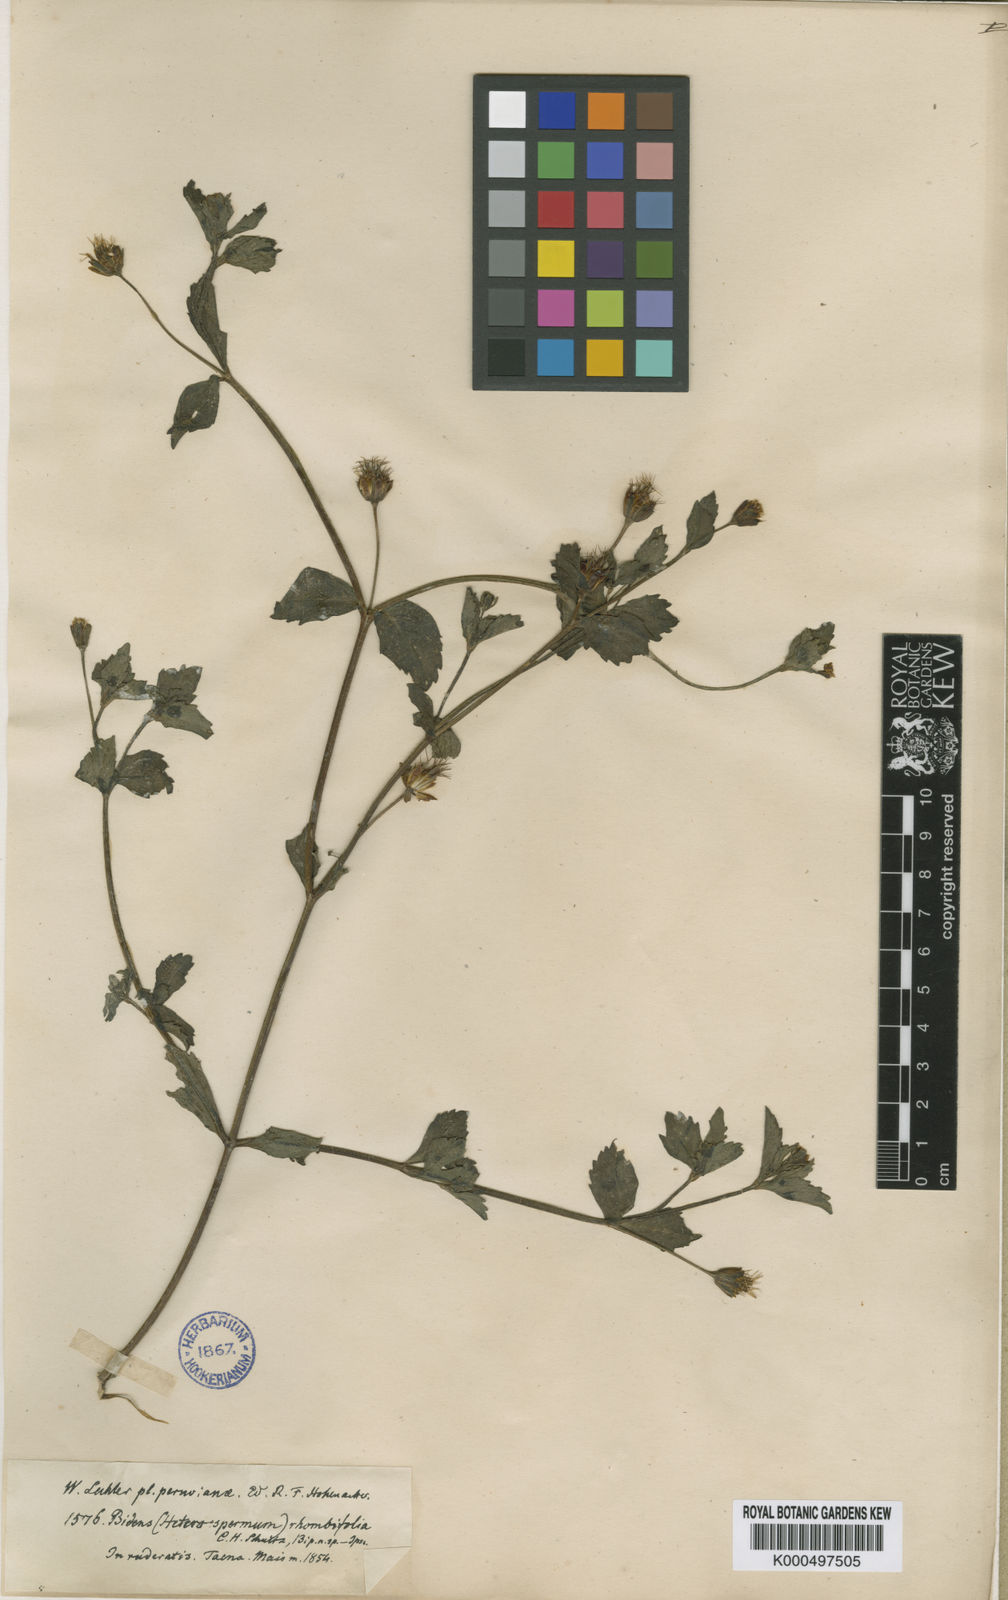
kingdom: Plantae
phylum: Tracheophyta
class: Magnoliopsida
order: Asterales
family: Asteraceae
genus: Heterosperma
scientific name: Heterosperma ovatifolium
